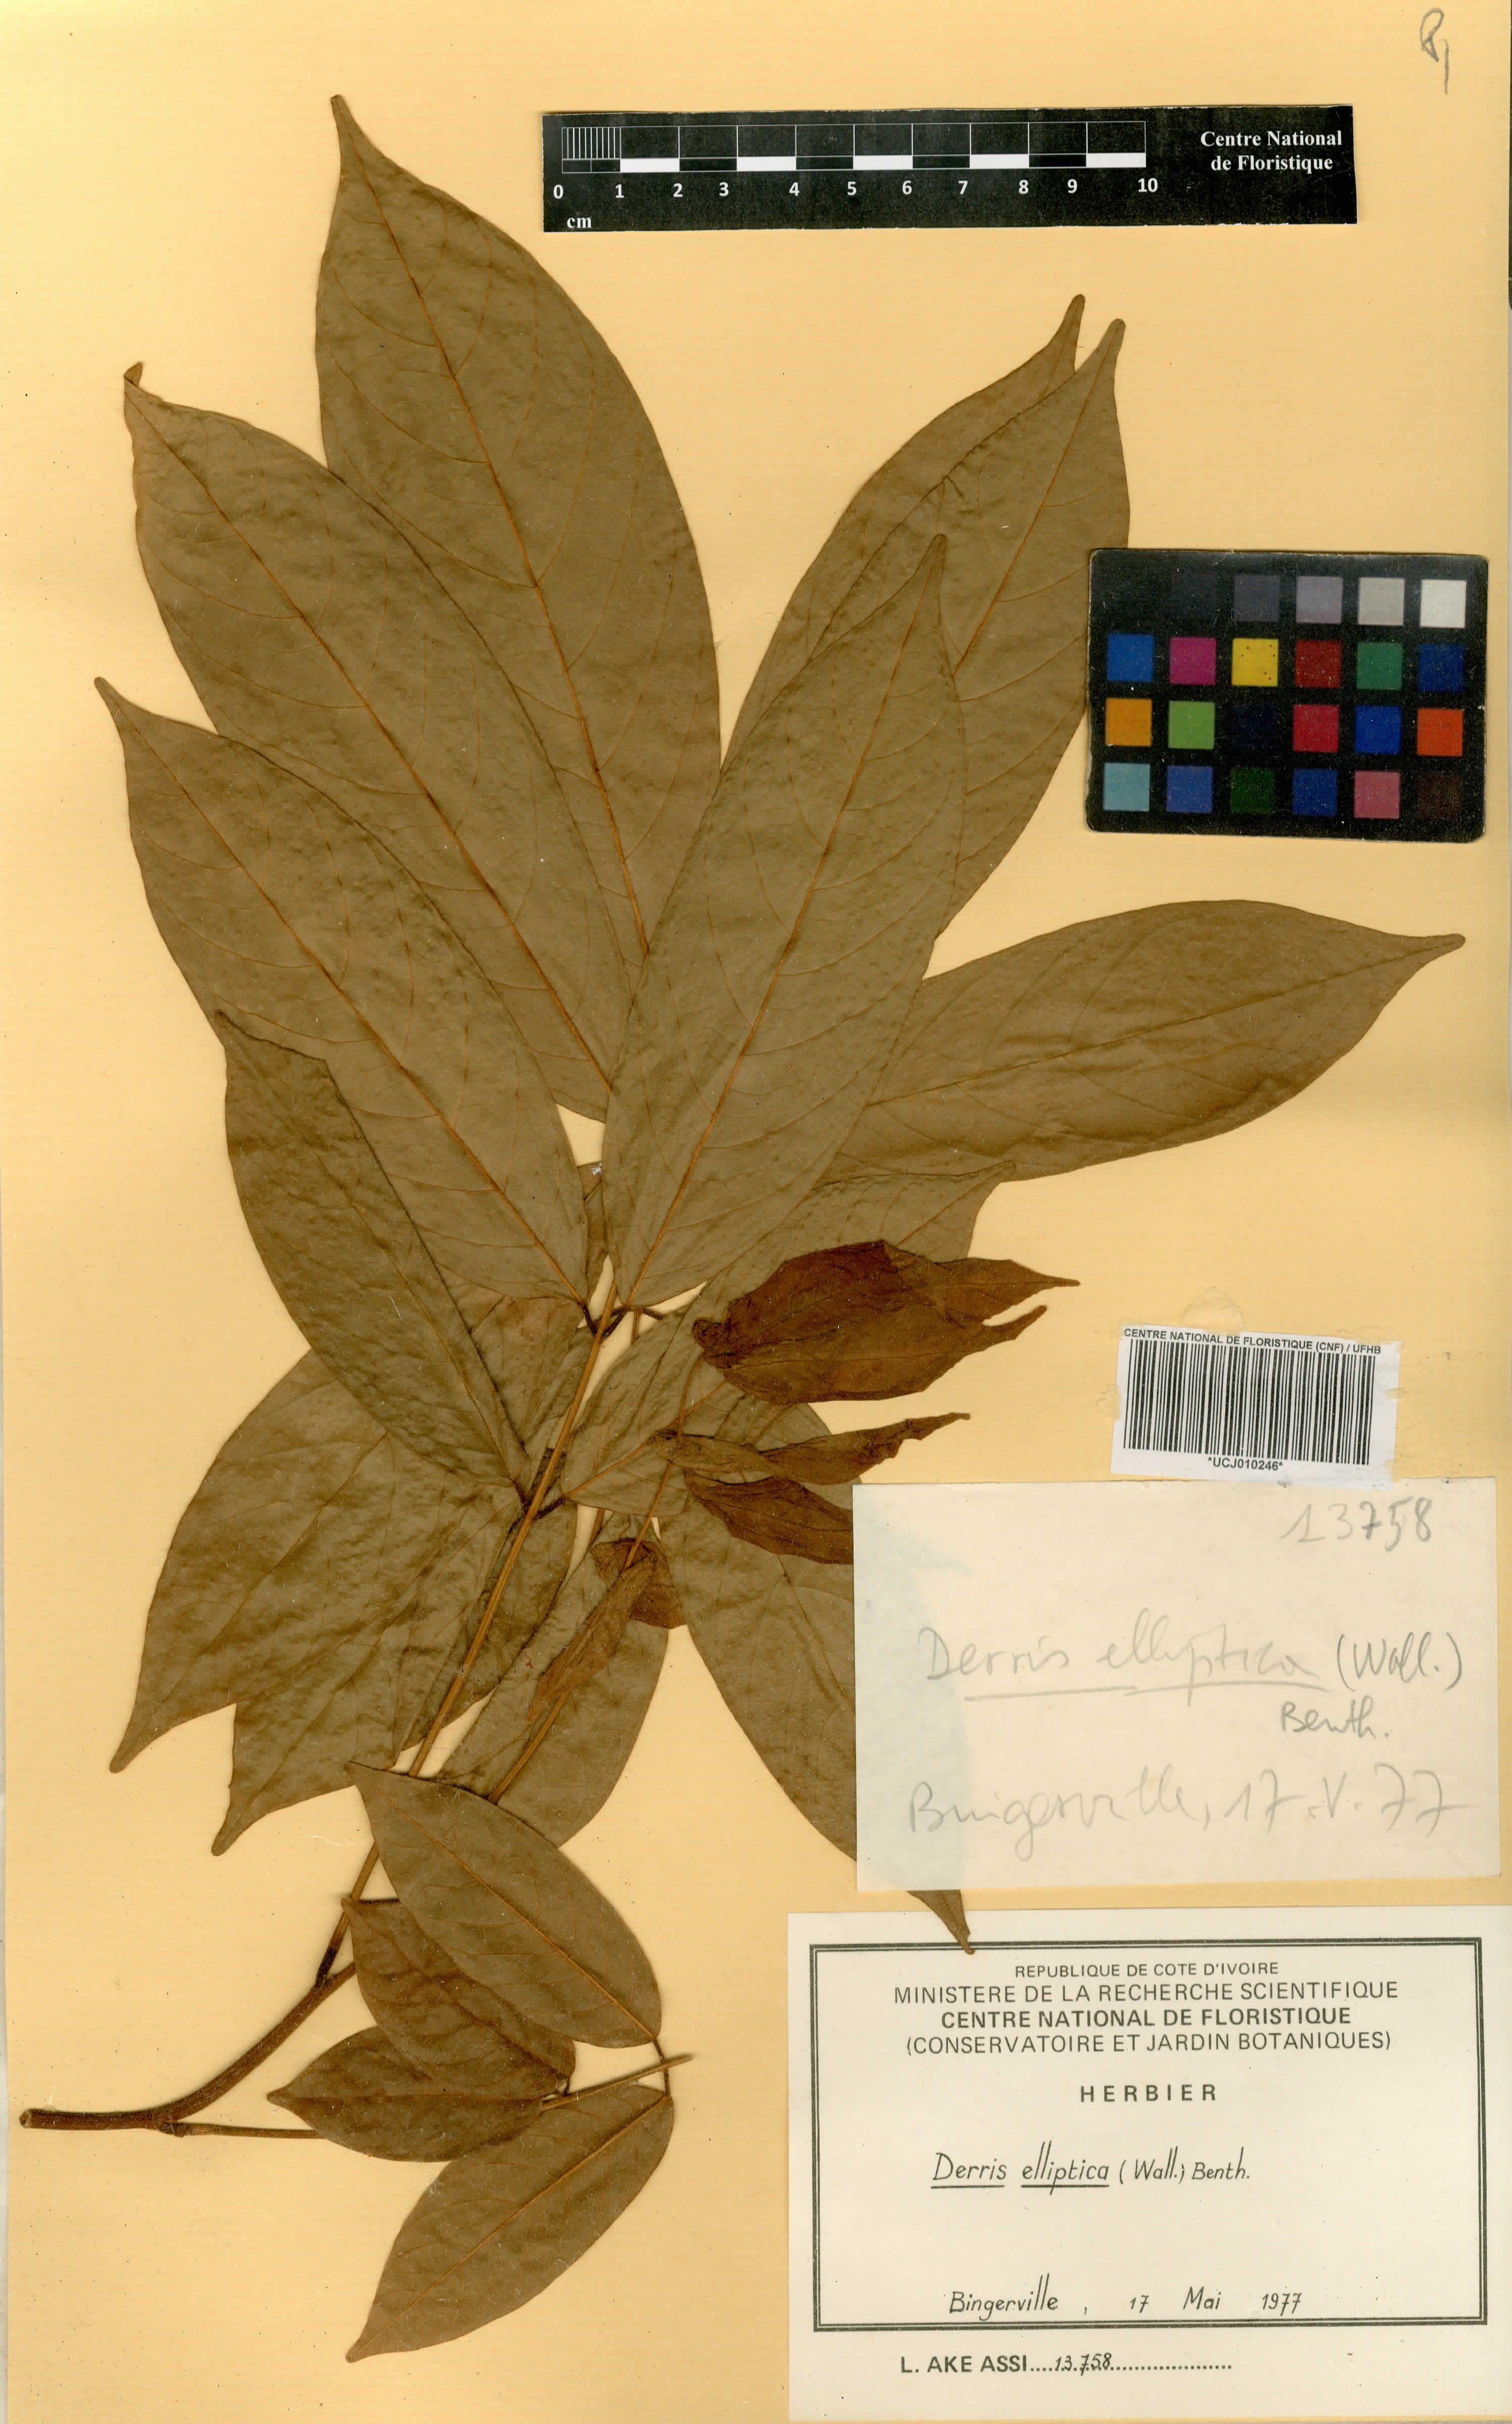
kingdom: Plantae
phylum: Tracheophyta
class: Magnoliopsida
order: Fabales
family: Fabaceae
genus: Derris
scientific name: Derris elliptica
